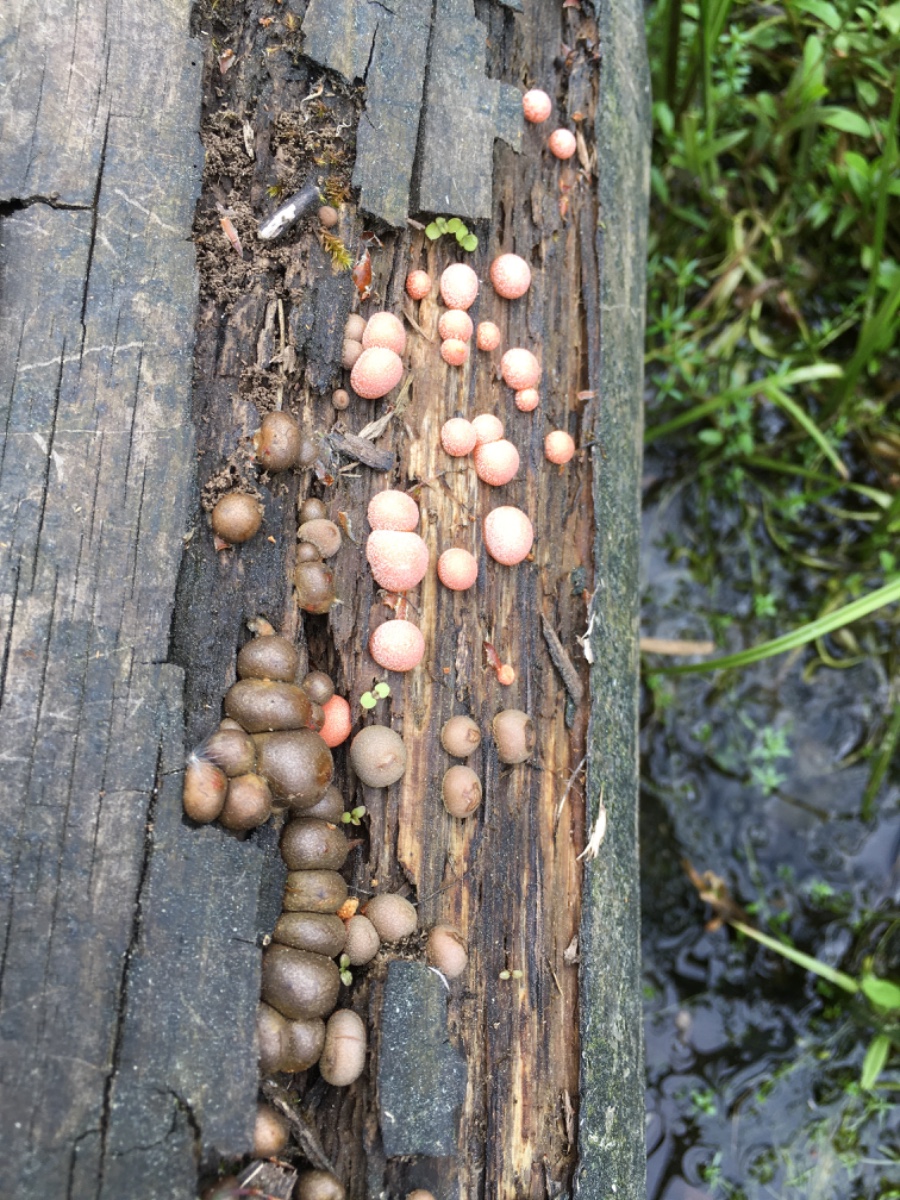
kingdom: Protozoa
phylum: Mycetozoa
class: Myxomycetes
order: Cribrariales
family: Tubiferaceae
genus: Lycogala
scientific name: Lycogala epidendrum
